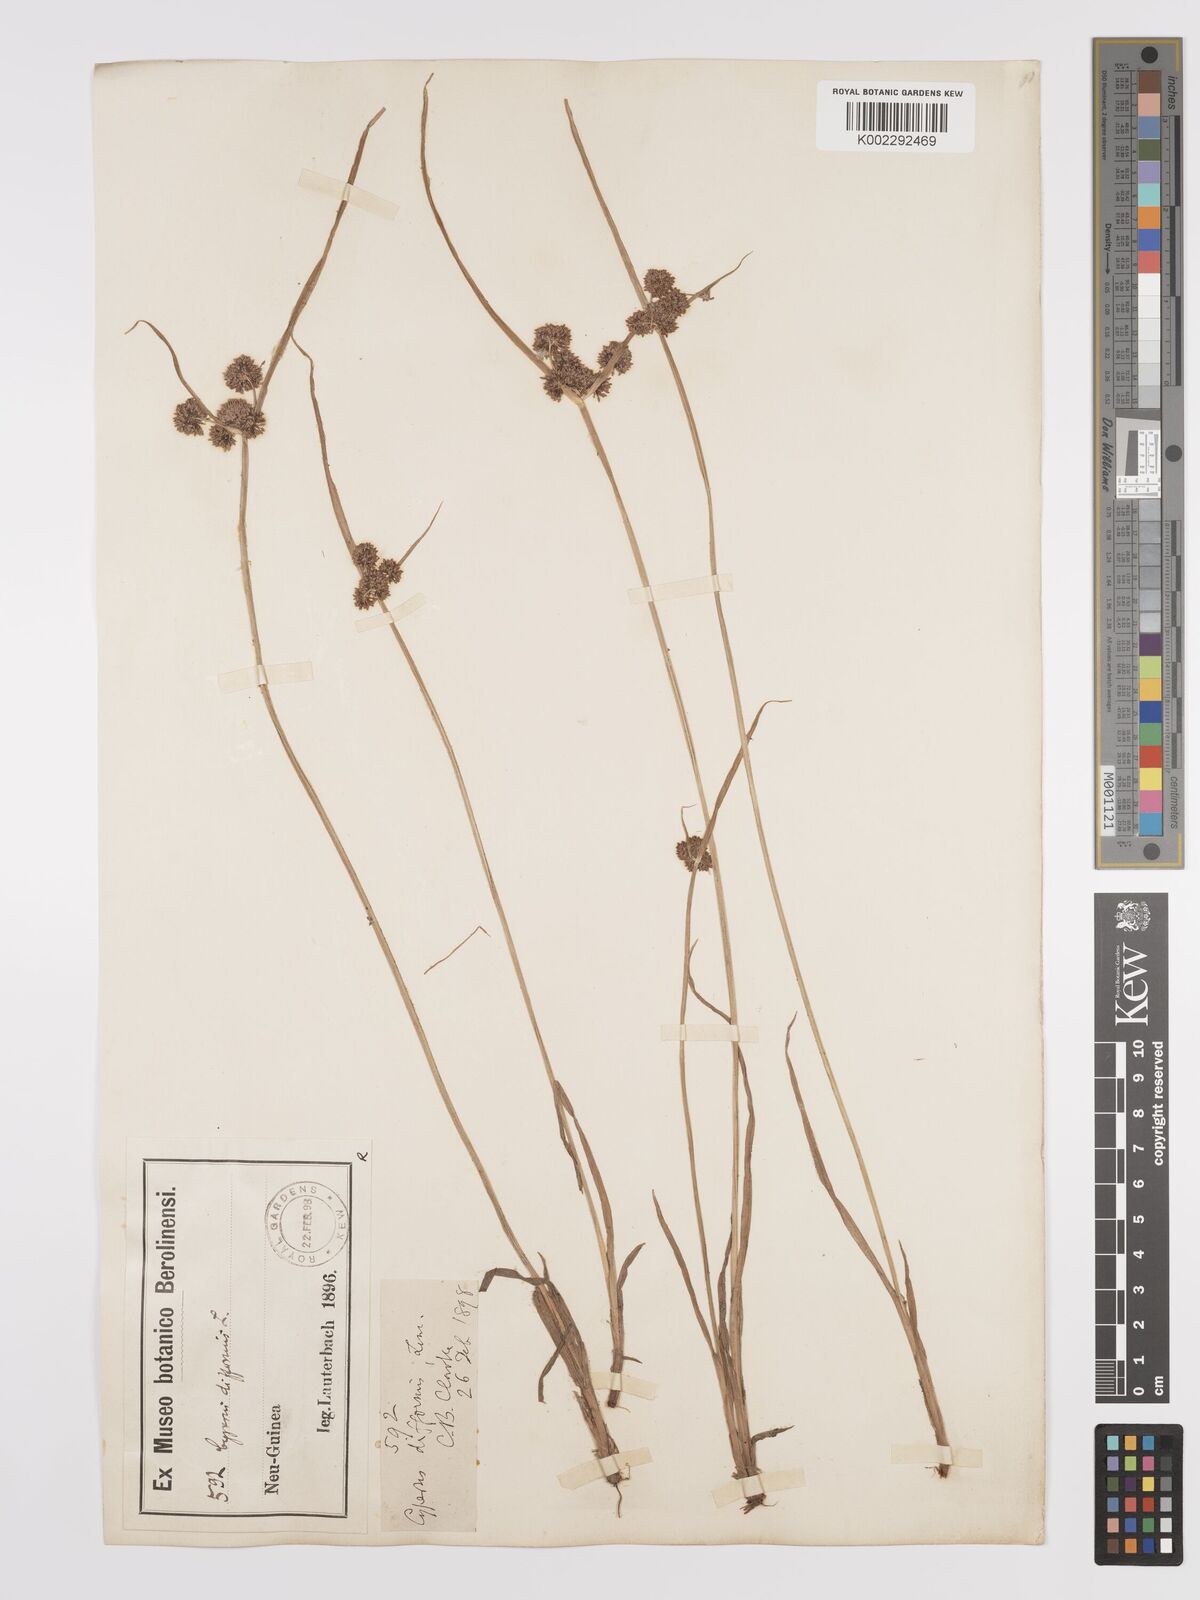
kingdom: Plantae
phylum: Tracheophyta
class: Liliopsida
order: Poales
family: Cyperaceae
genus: Cyperus
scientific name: Cyperus difformis
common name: Variable flatsedge
